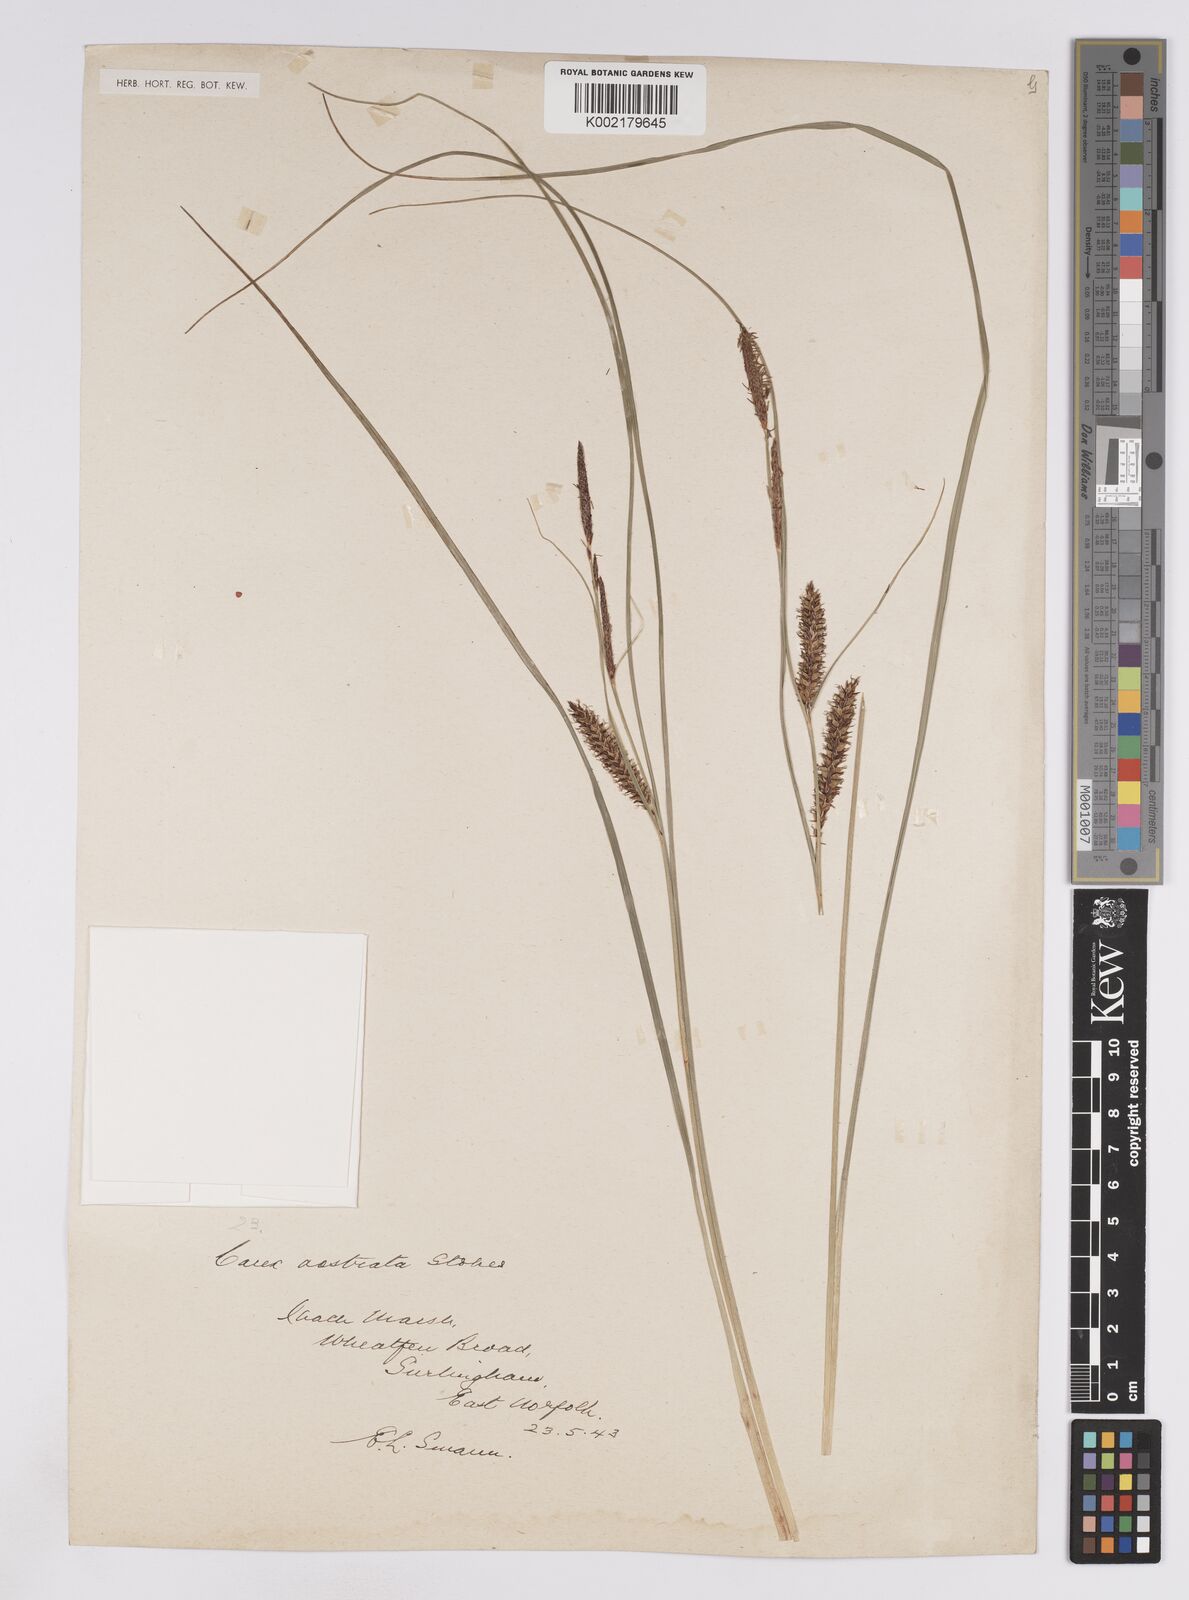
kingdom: Plantae
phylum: Tracheophyta
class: Liliopsida
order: Poales
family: Cyperaceae
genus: Carex
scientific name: Carex rostrata
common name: Bottle sedge
